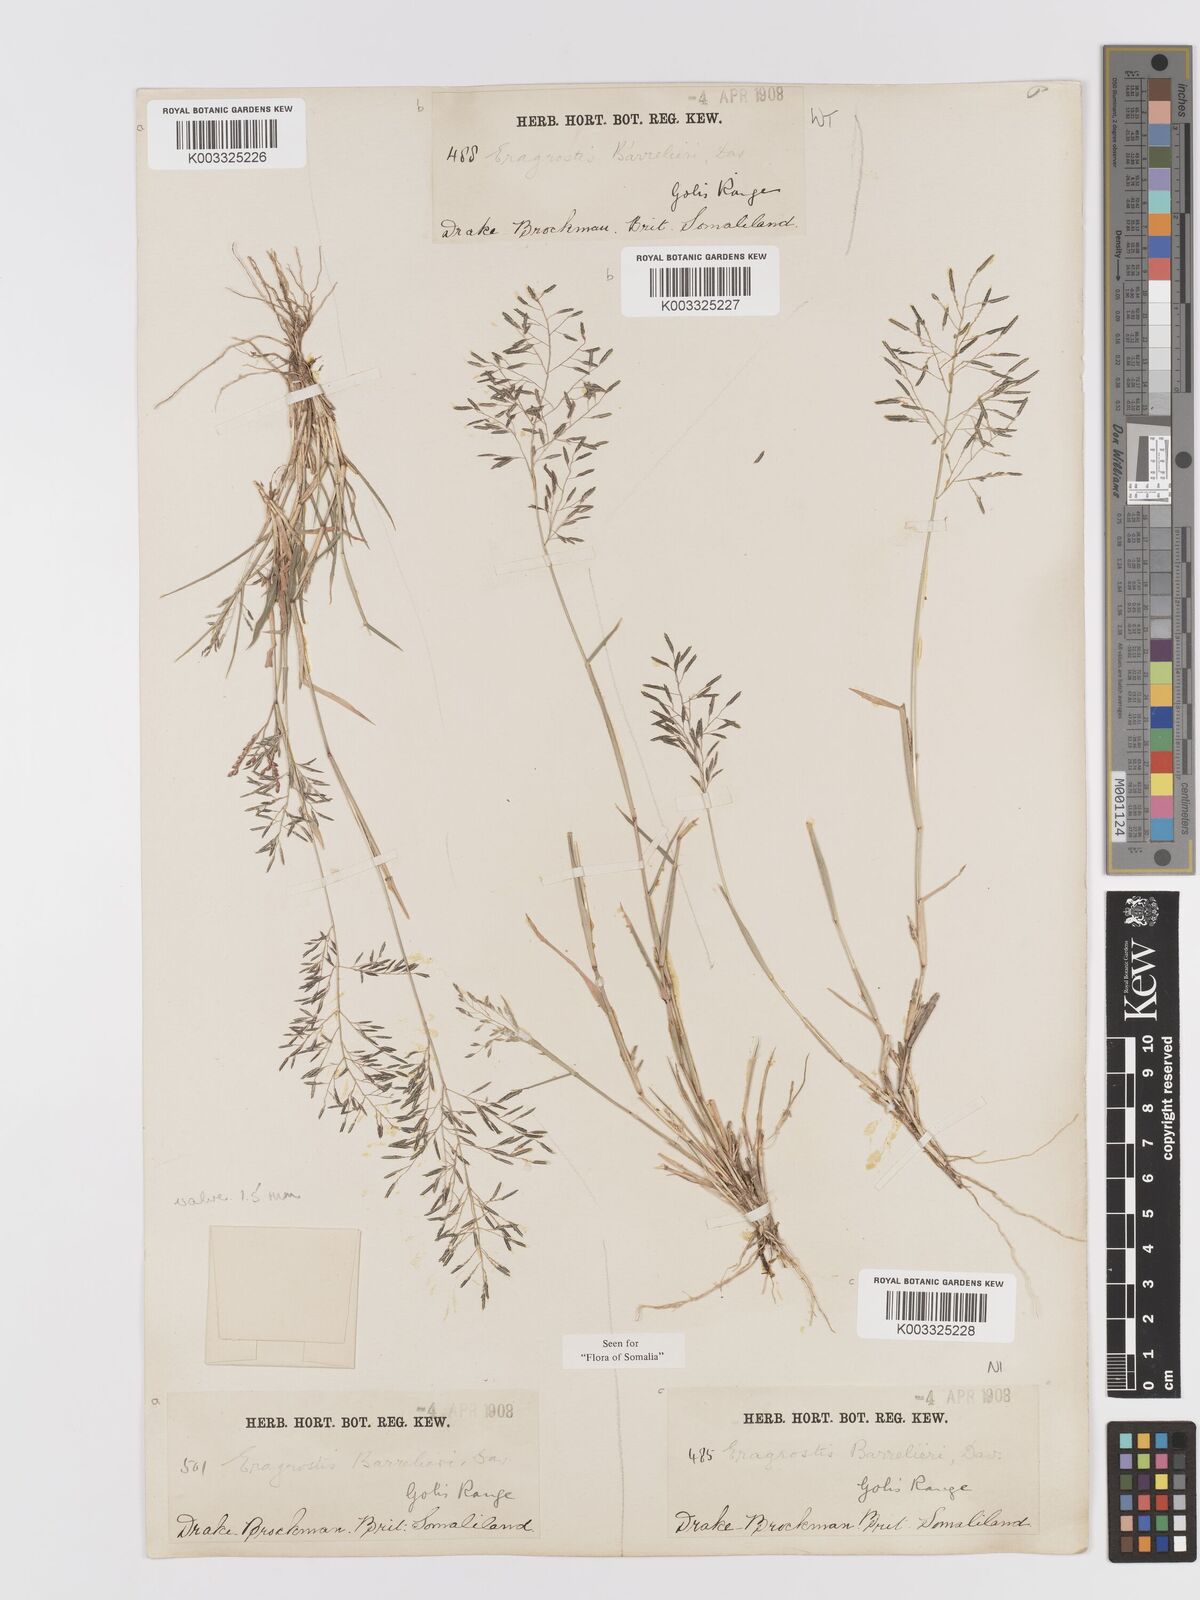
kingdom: Plantae
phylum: Tracheophyta
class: Liliopsida
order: Poales
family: Poaceae
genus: Eragrostis
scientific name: Eragrostis papposa
